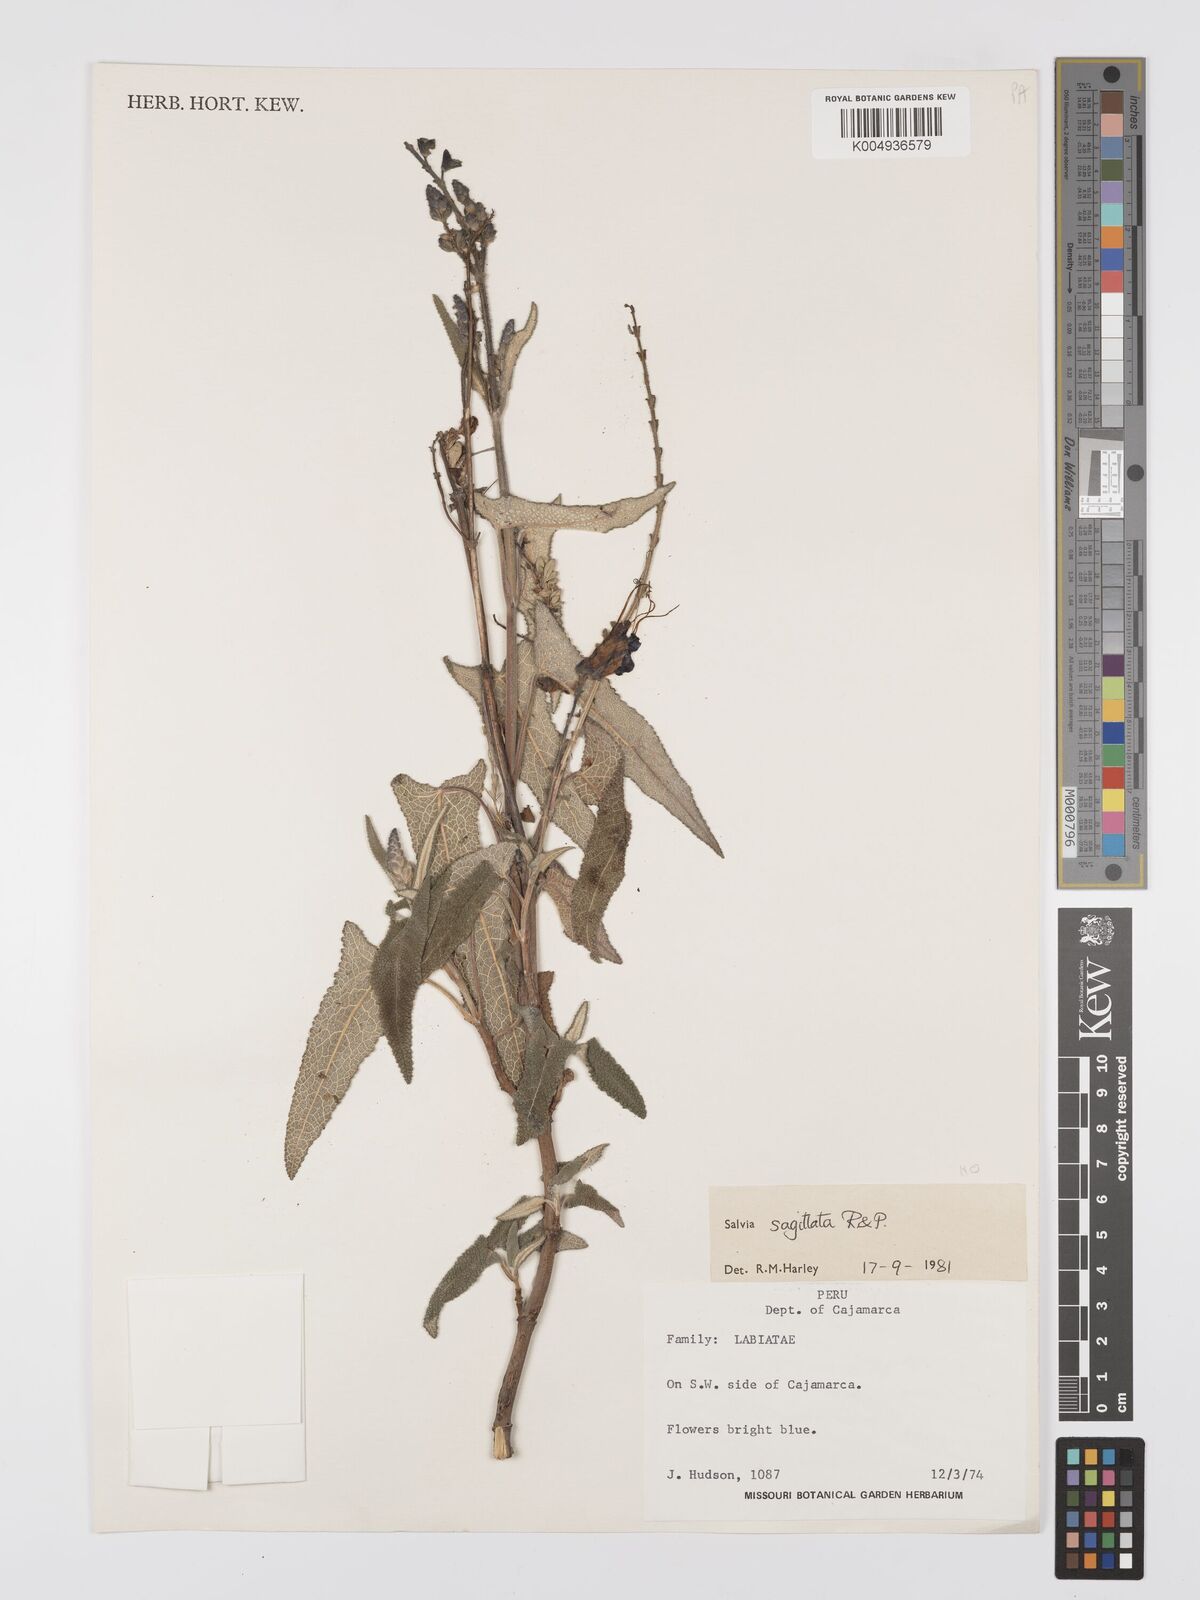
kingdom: Plantae
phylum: Tracheophyta
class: Magnoliopsida
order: Lamiales
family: Lamiaceae
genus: Salvia
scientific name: Salvia sagittata
